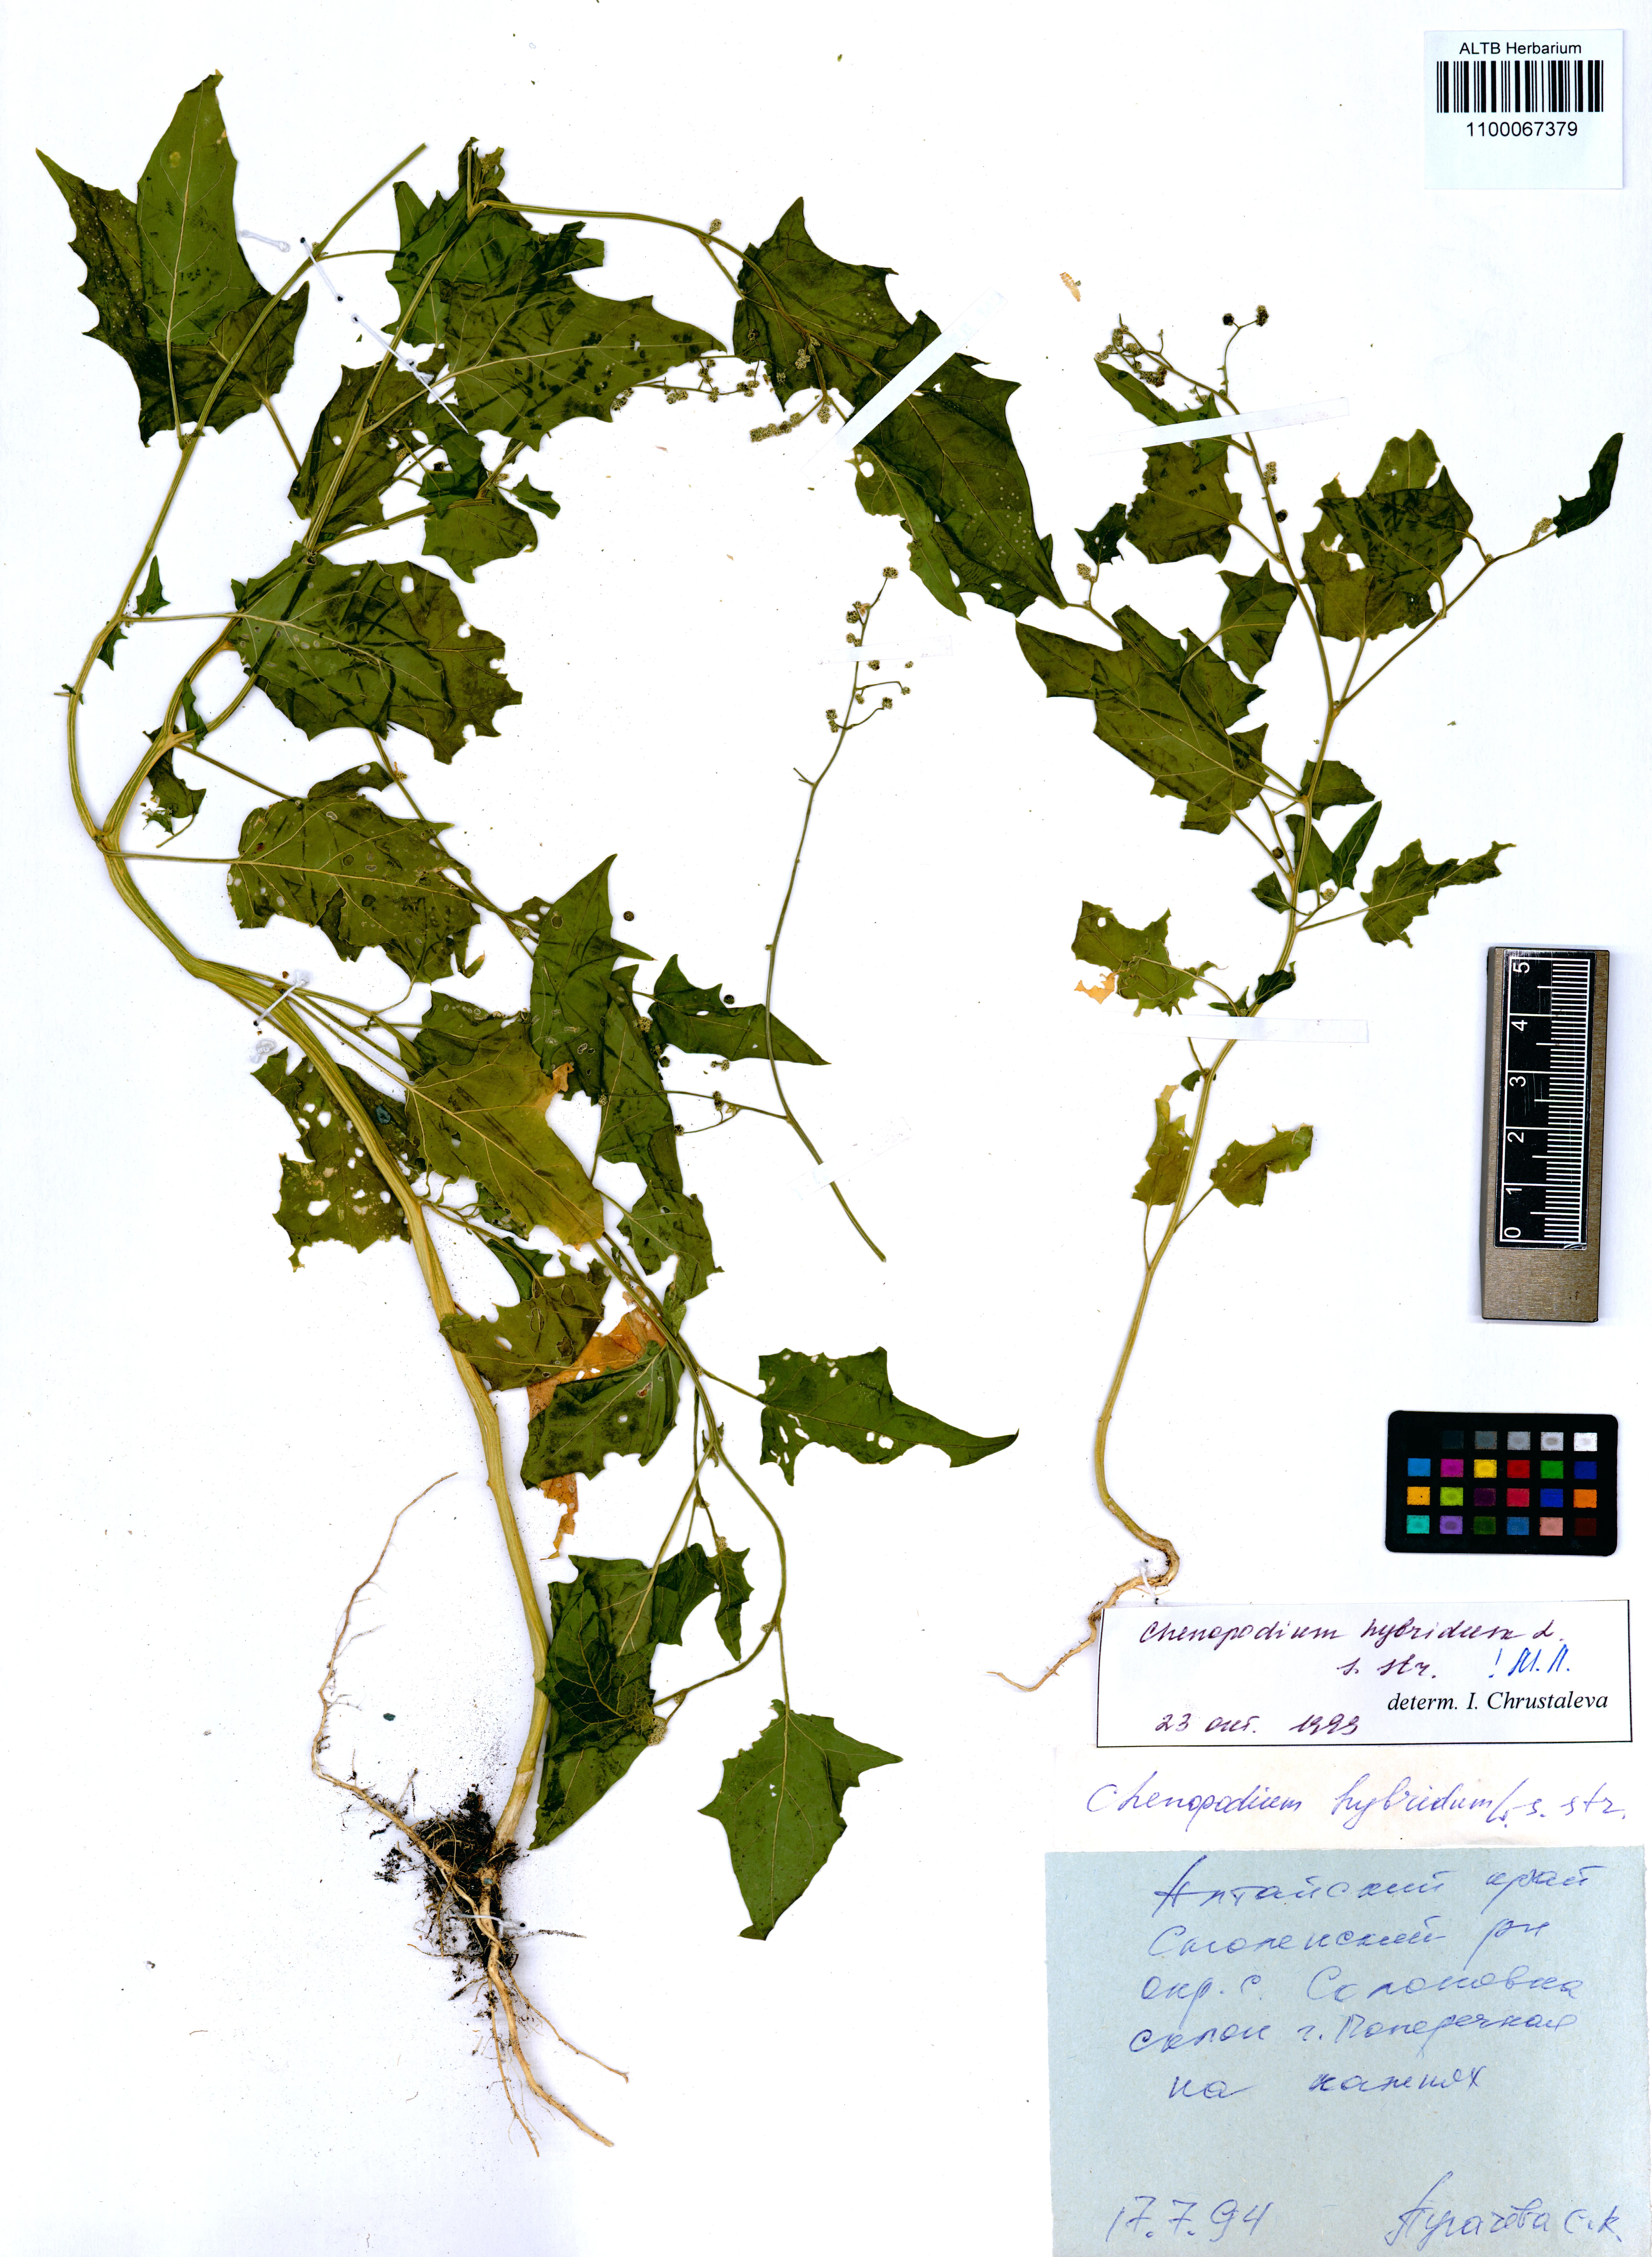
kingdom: Plantae
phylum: Tracheophyta
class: Magnoliopsida
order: Caryophyllales
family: Amaranthaceae
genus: Chenopodiastrum
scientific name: Chenopodiastrum hybridum
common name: Mapleleaf goosefoot
